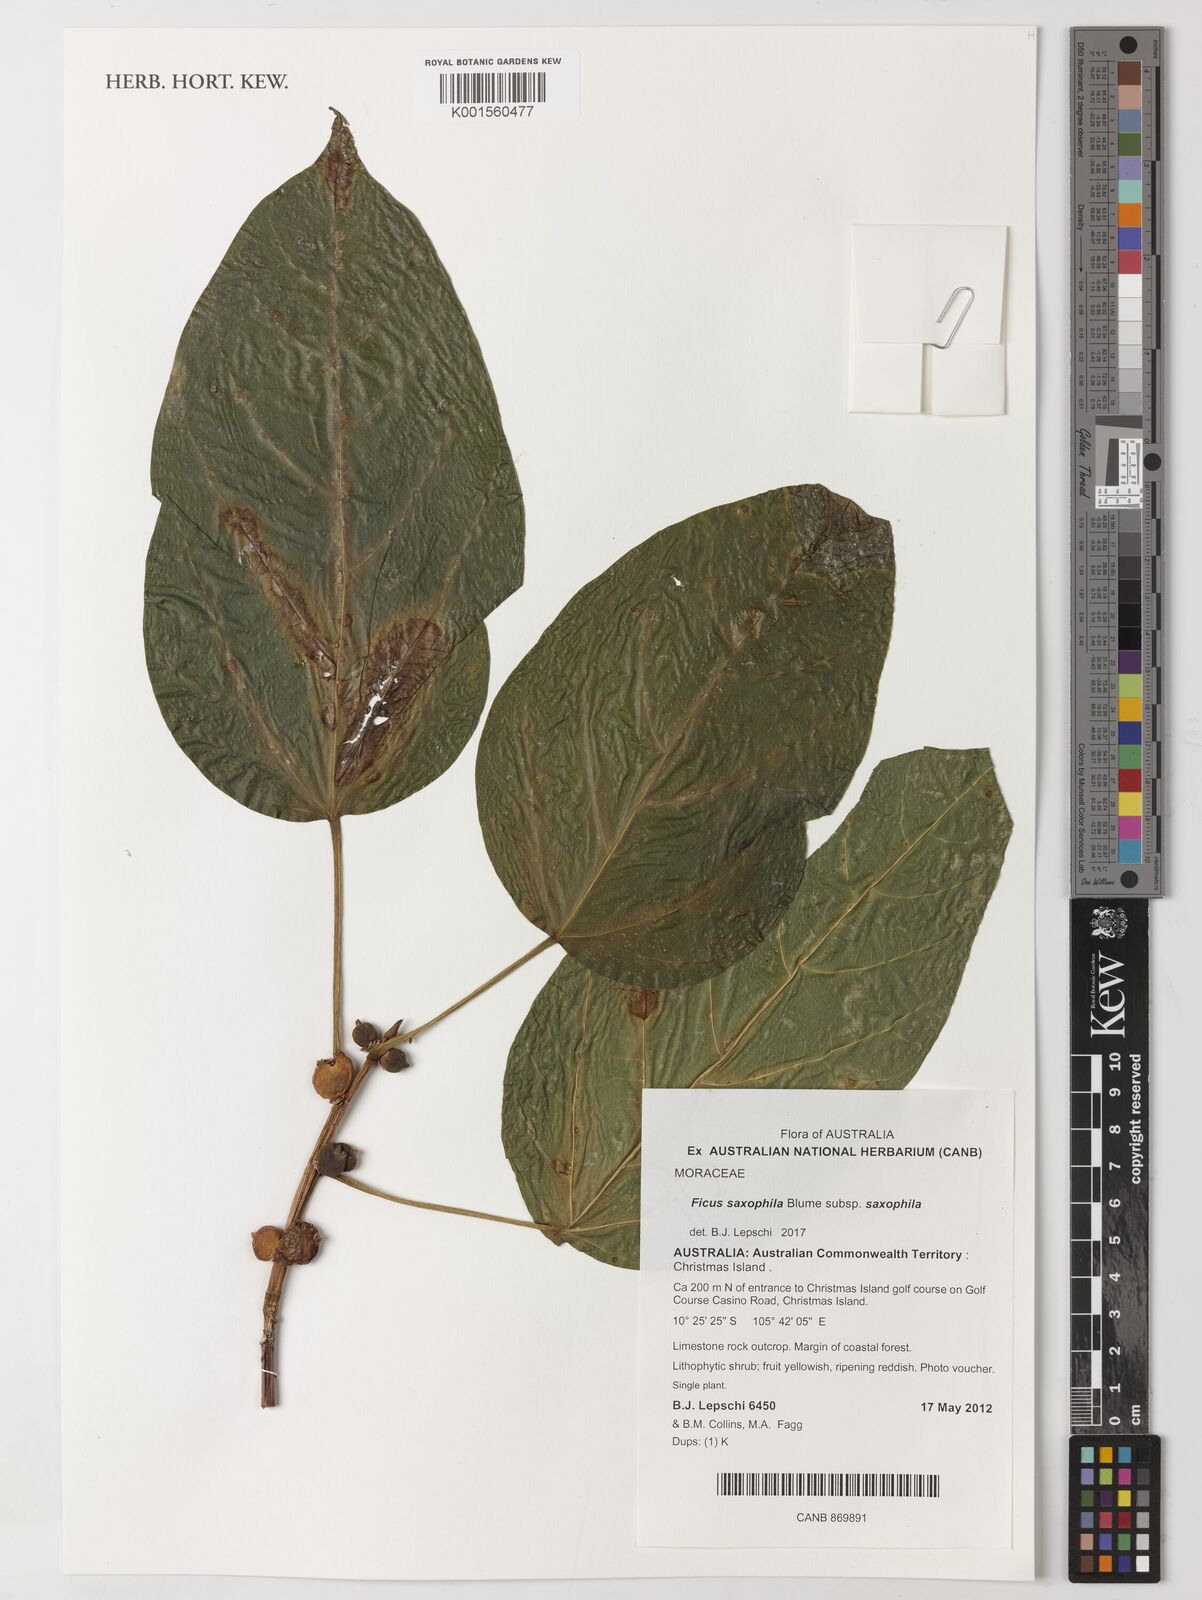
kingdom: Plantae
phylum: Tracheophyta
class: Magnoliopsida
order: Rosales
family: Moraceae
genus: Ficus
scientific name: Ficus saxophila
